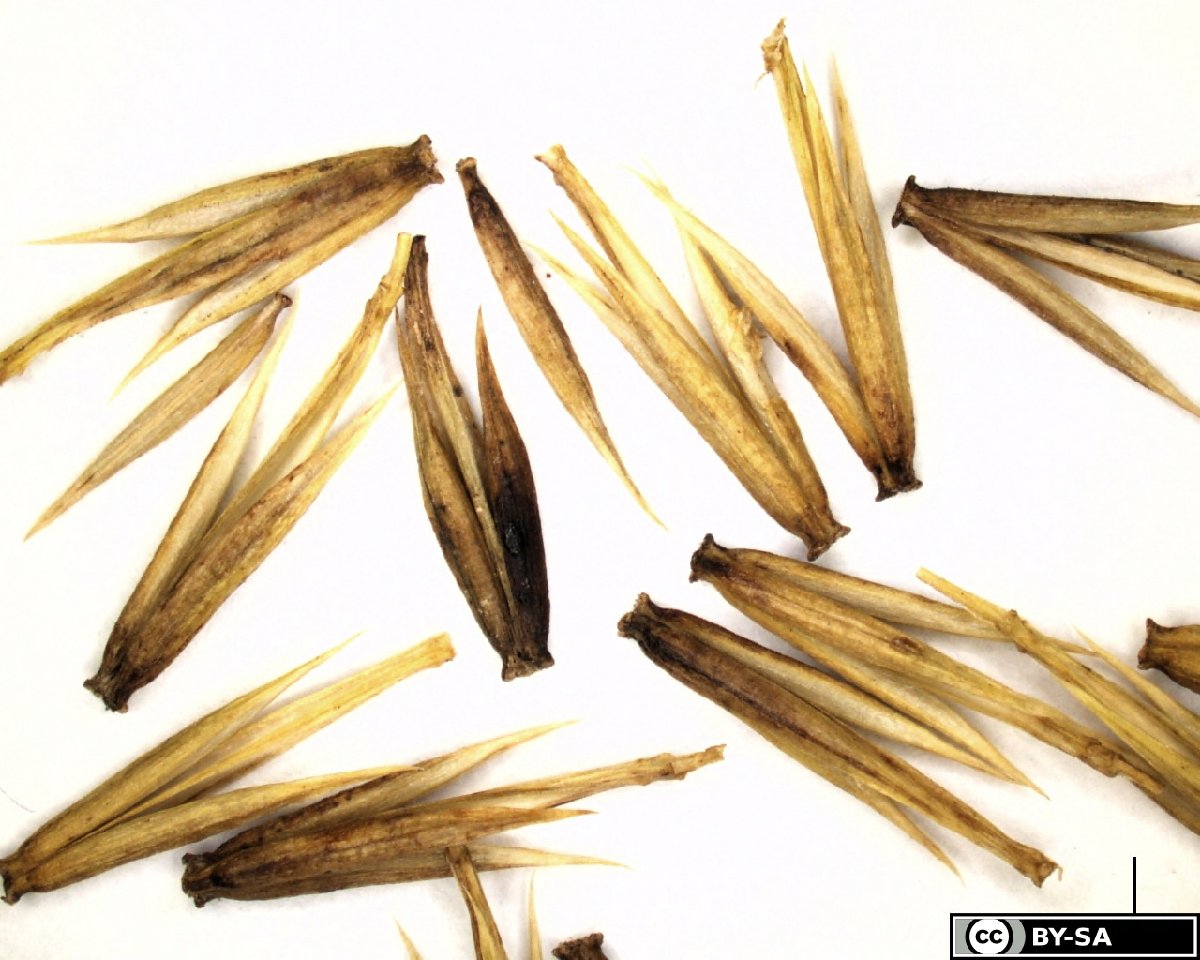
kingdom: Plantae
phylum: Tracheophyta
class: Liliopsida
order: Alismatales
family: Juncaginaceae
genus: Triglochin
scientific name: Triglochin palustris
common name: Marsh arrowgrass
